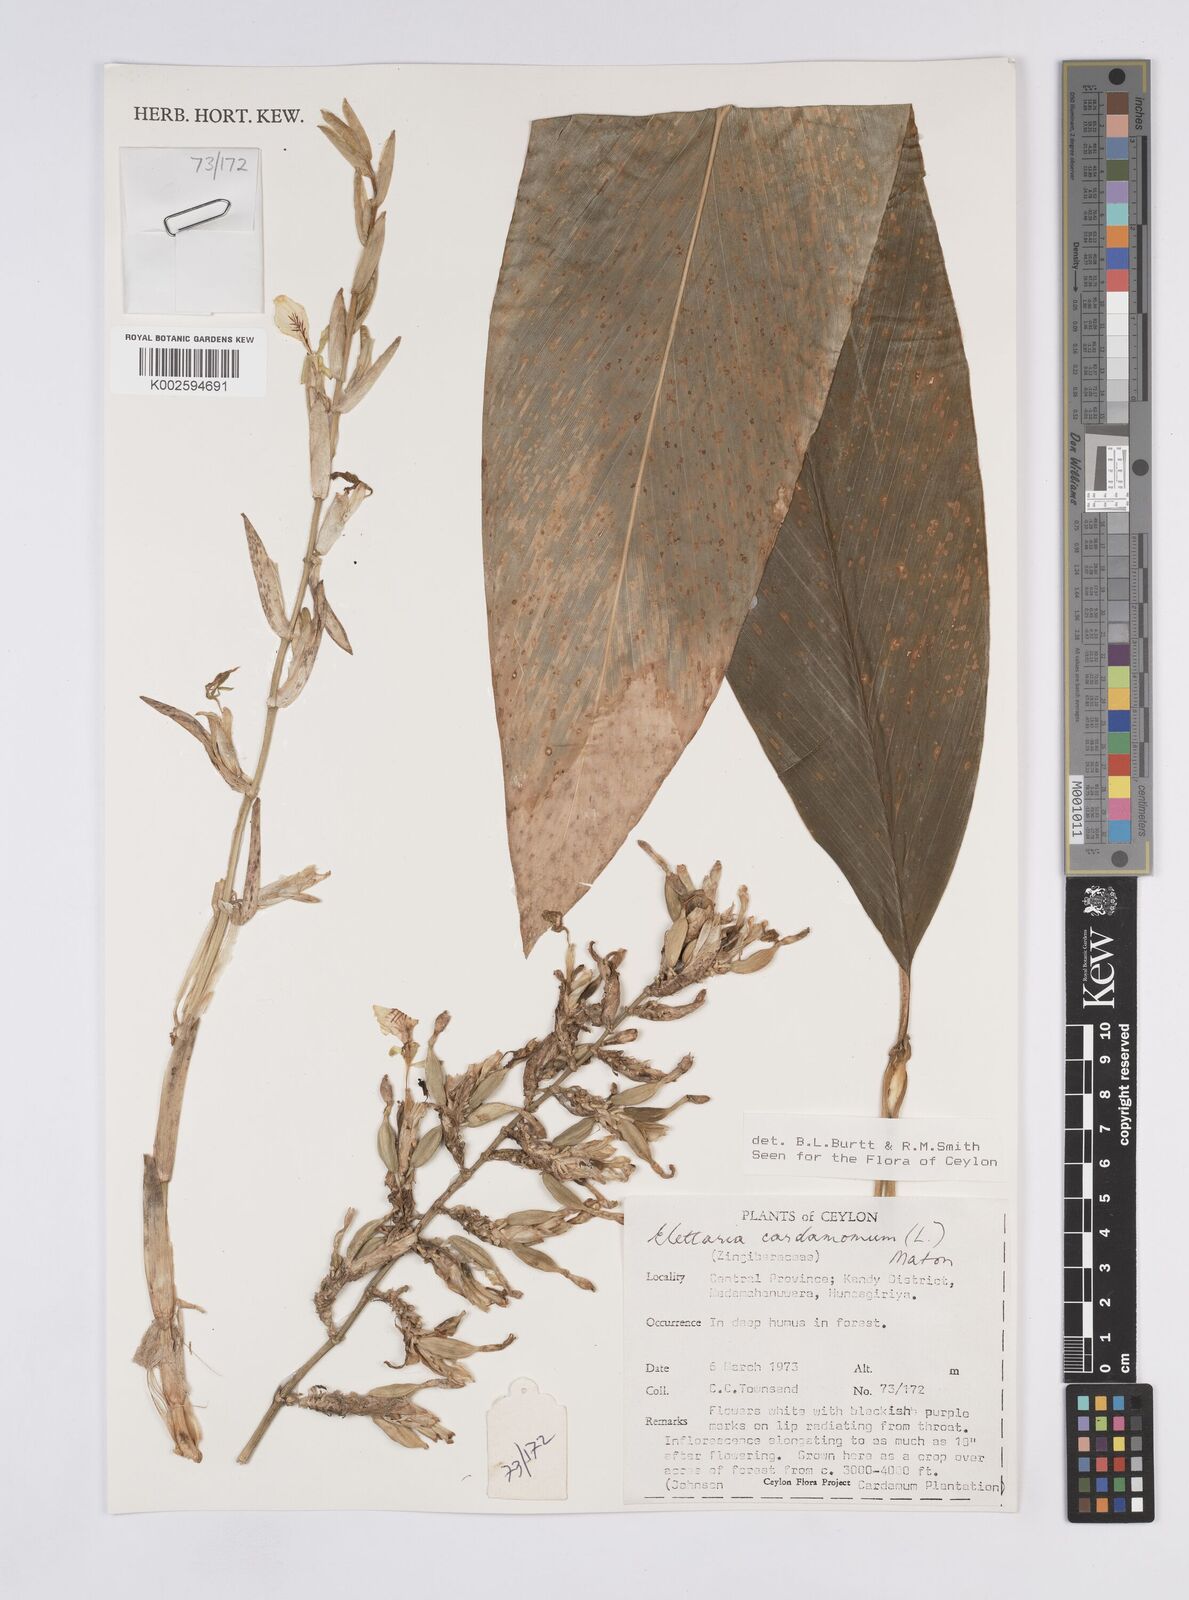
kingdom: Plantae
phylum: Tracheophyta
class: Liliopsida
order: Zingiberales
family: Zingiberaceae
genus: Elettaria
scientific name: Elettaria cardamomum
